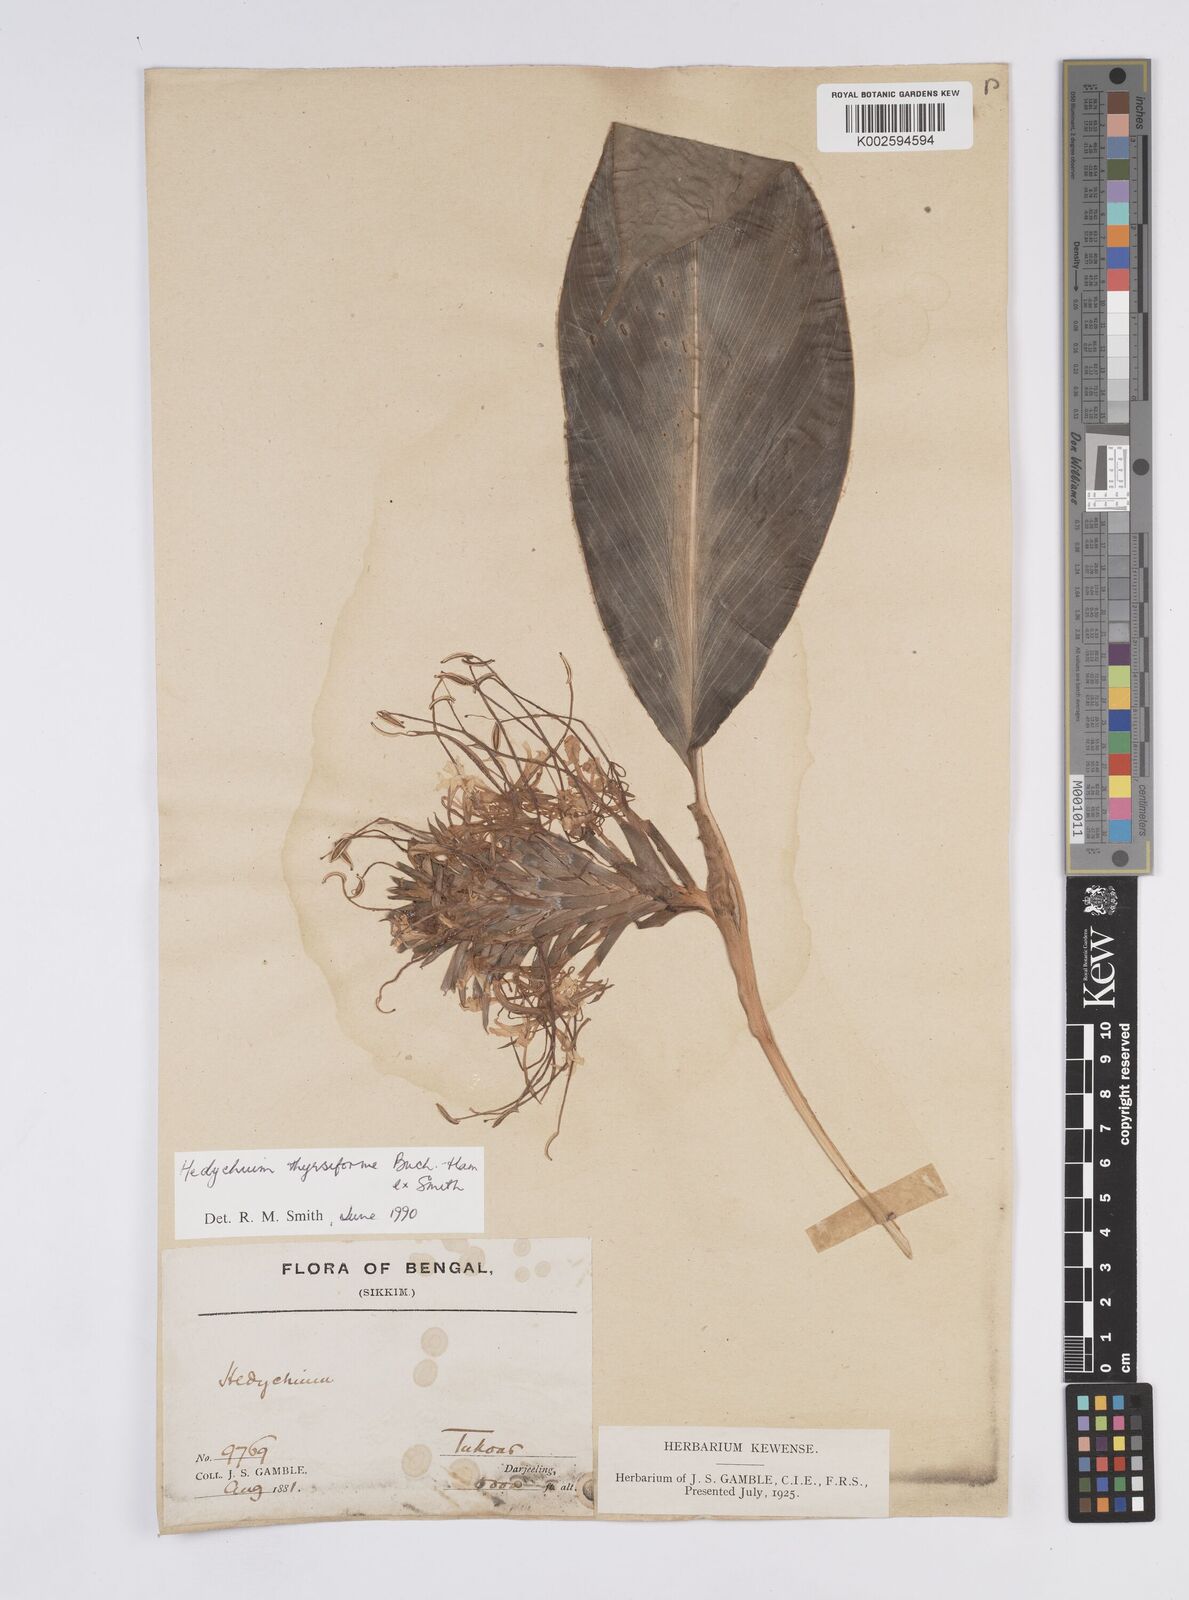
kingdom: Plantae
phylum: Tracheophyta
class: Liliopsida
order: Zingiberales
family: Zingiberaceae
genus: Hedychium
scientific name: Hedychium
